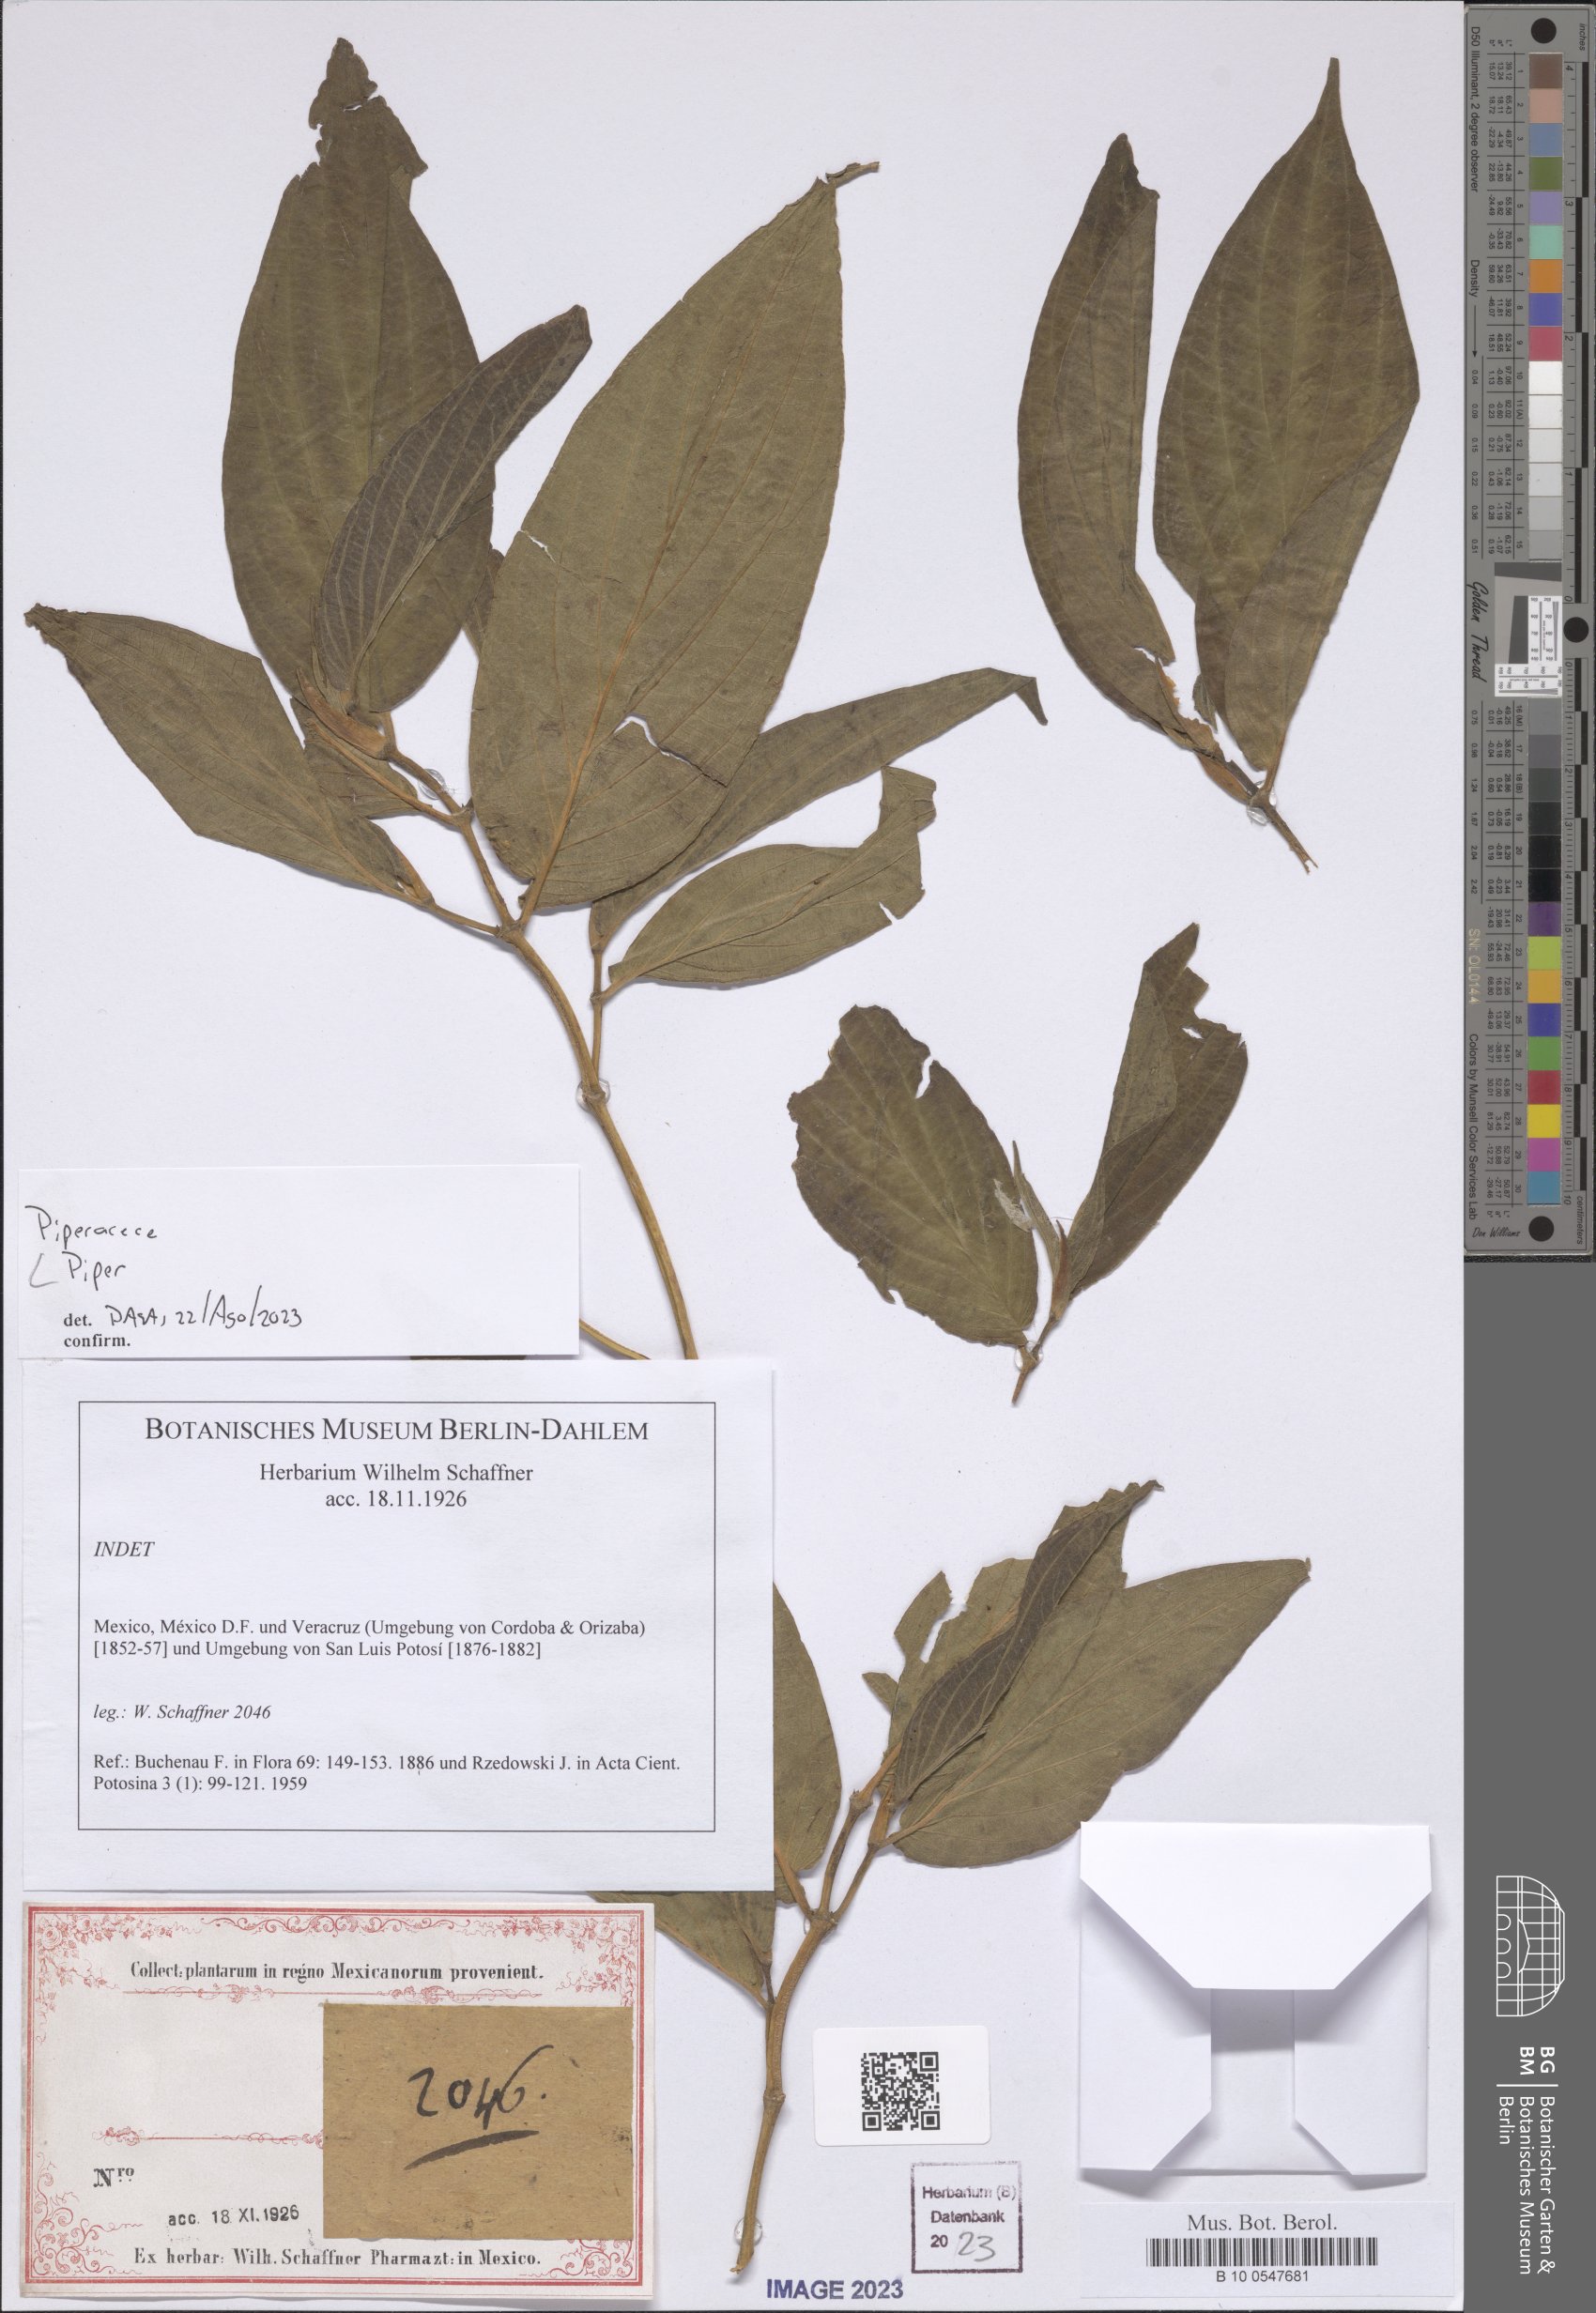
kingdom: Plantae
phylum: Tracheophyta
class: Magnoliopsida
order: Piperales
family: Piperaceae
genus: Piper
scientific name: Piper
